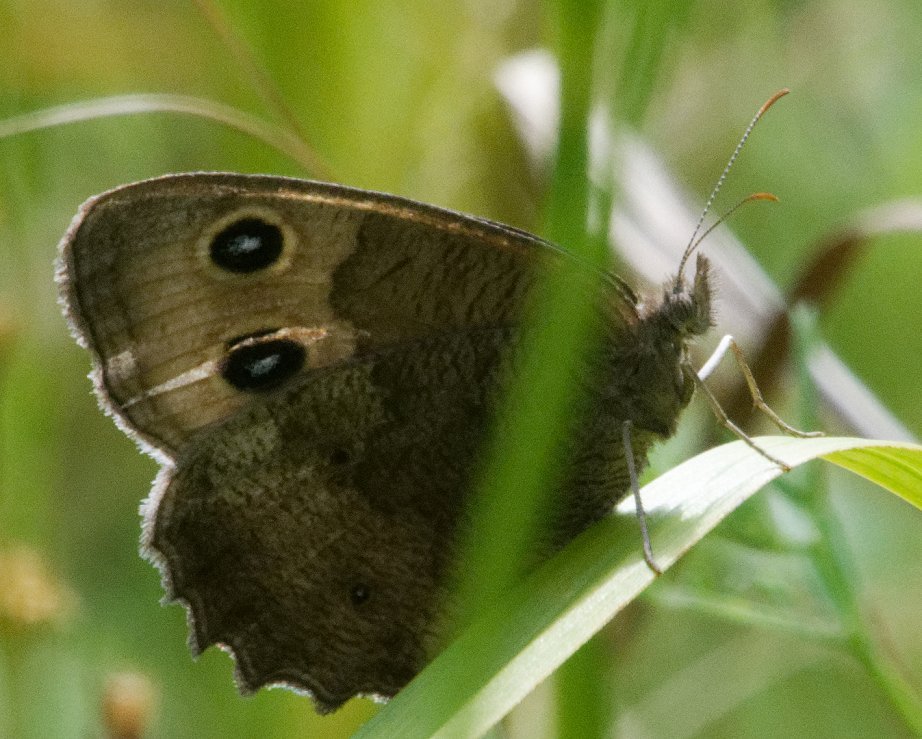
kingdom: Animalia
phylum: Arthropoda
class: Insecta
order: Lepidoptera
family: Nymphalidae
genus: Cercyonis
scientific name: Cercyonis pegala
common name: Common Wood-Nymph
